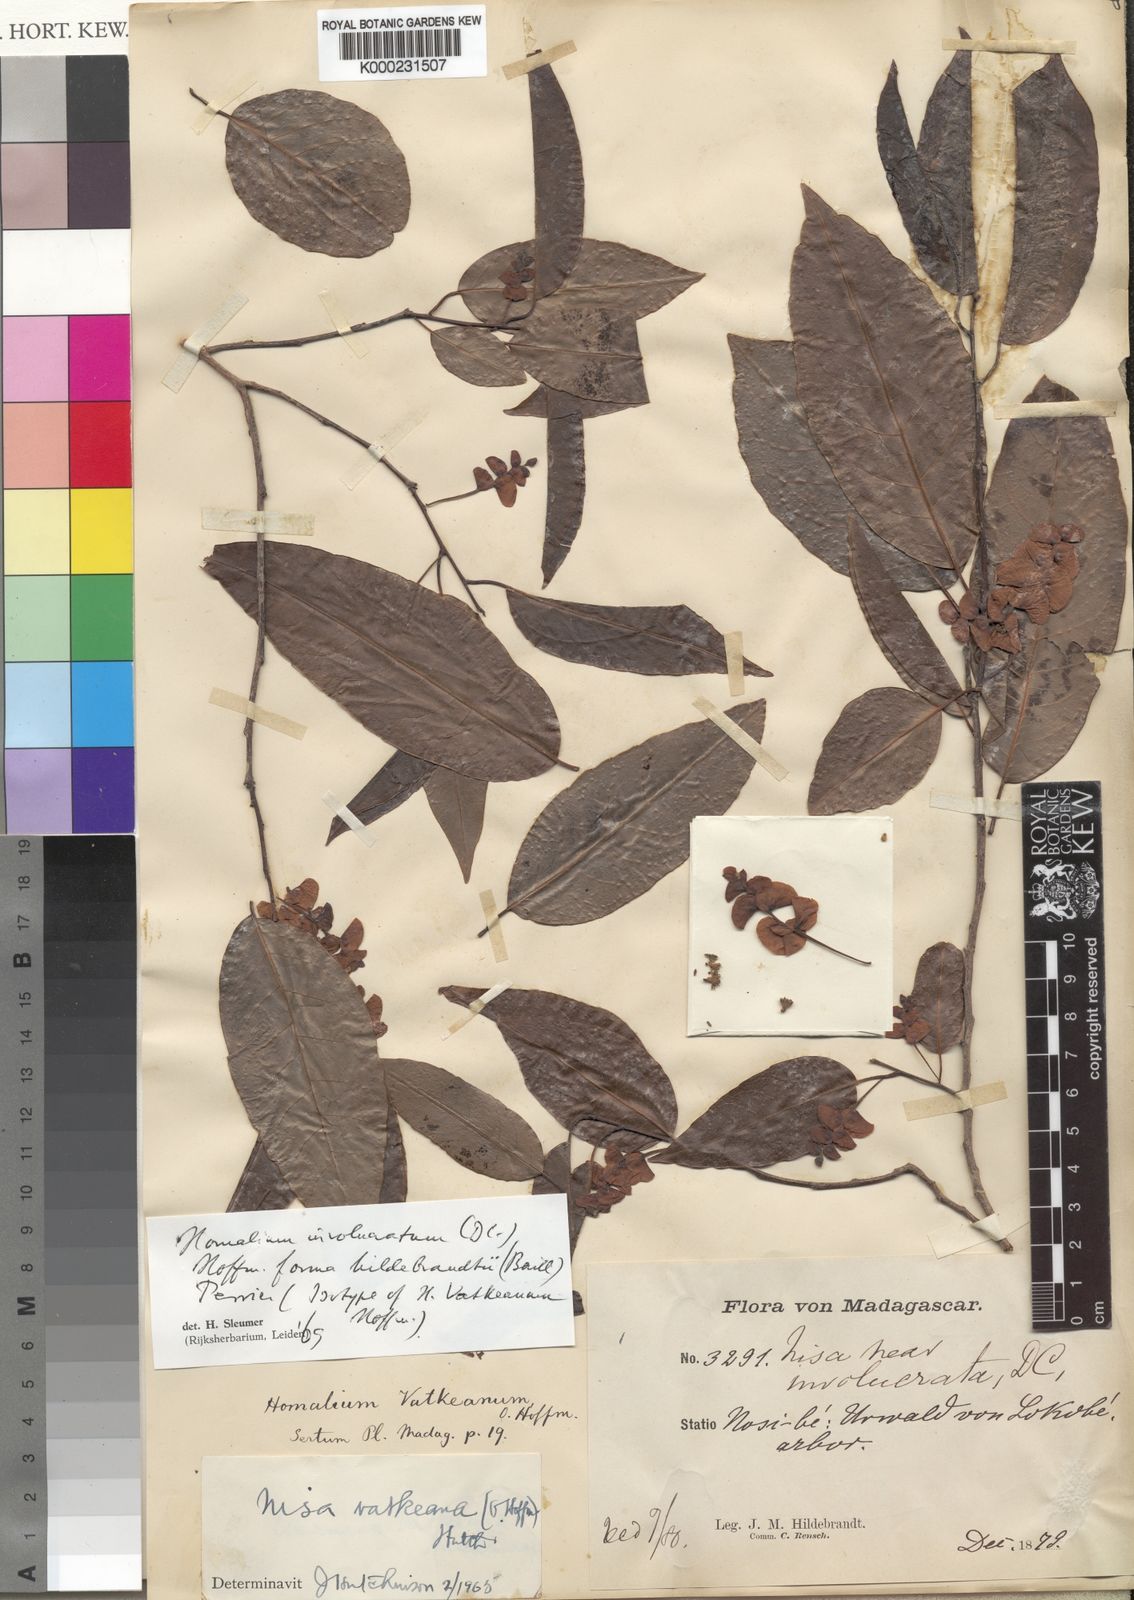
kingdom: Plantae
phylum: Tracheophyta
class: Magnoliopsida
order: Malpighiales
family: Salicaceae
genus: Homalium
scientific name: Homalium involucratum
